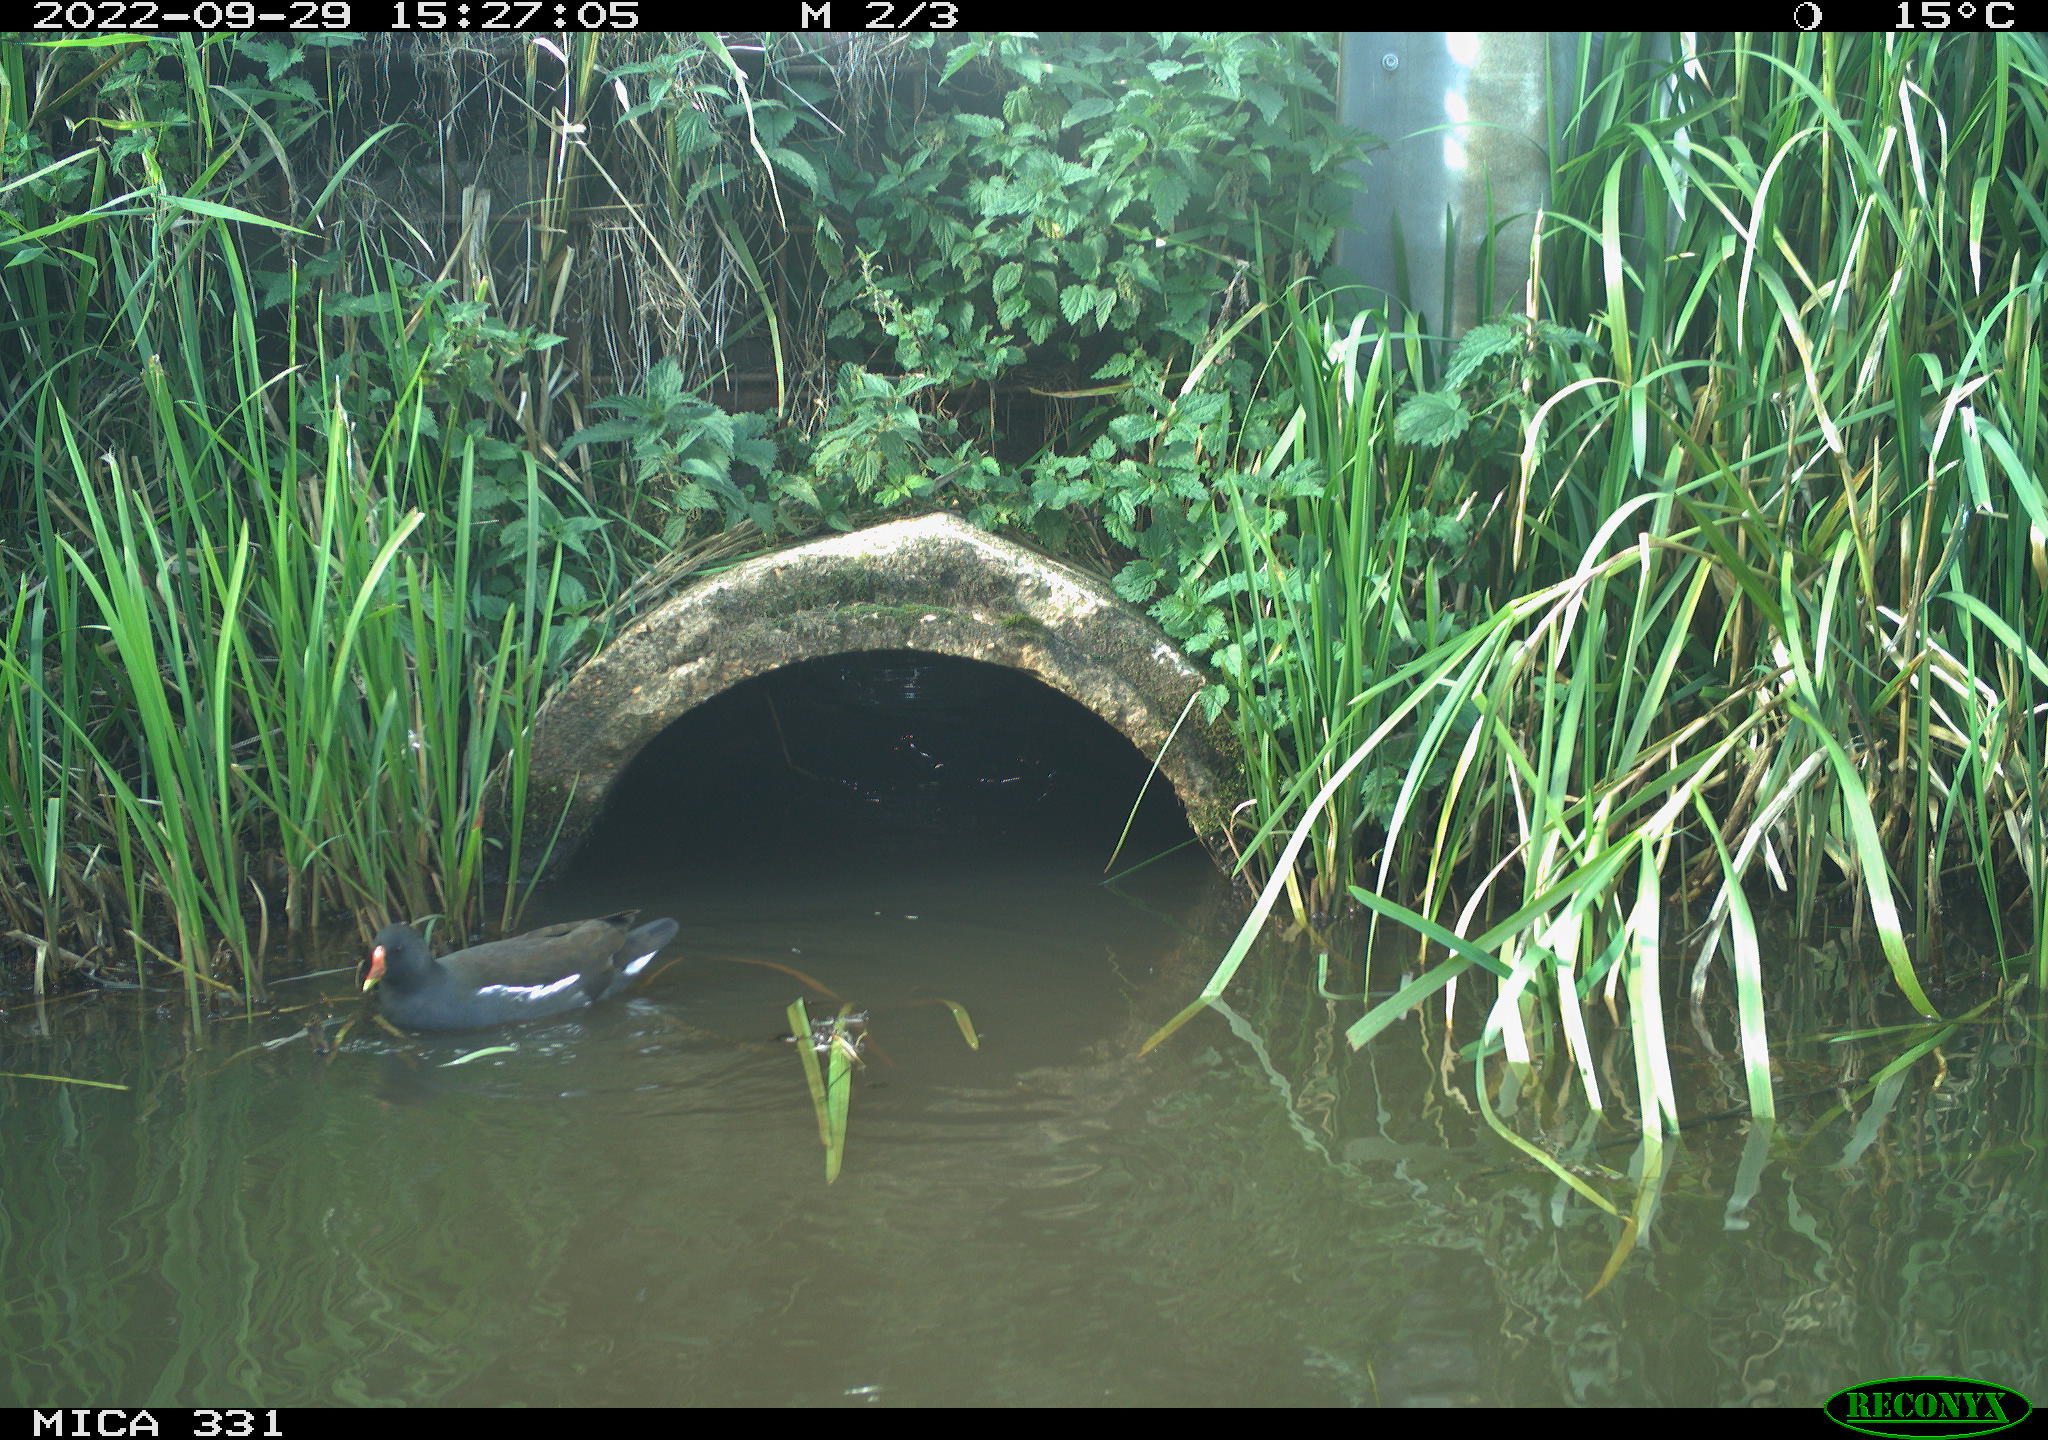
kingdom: Animalia
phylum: Chordata
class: Aves
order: Gruiformes
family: Rallidae
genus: Gallinula
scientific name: Gallinula chloropus
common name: Common moorhen
